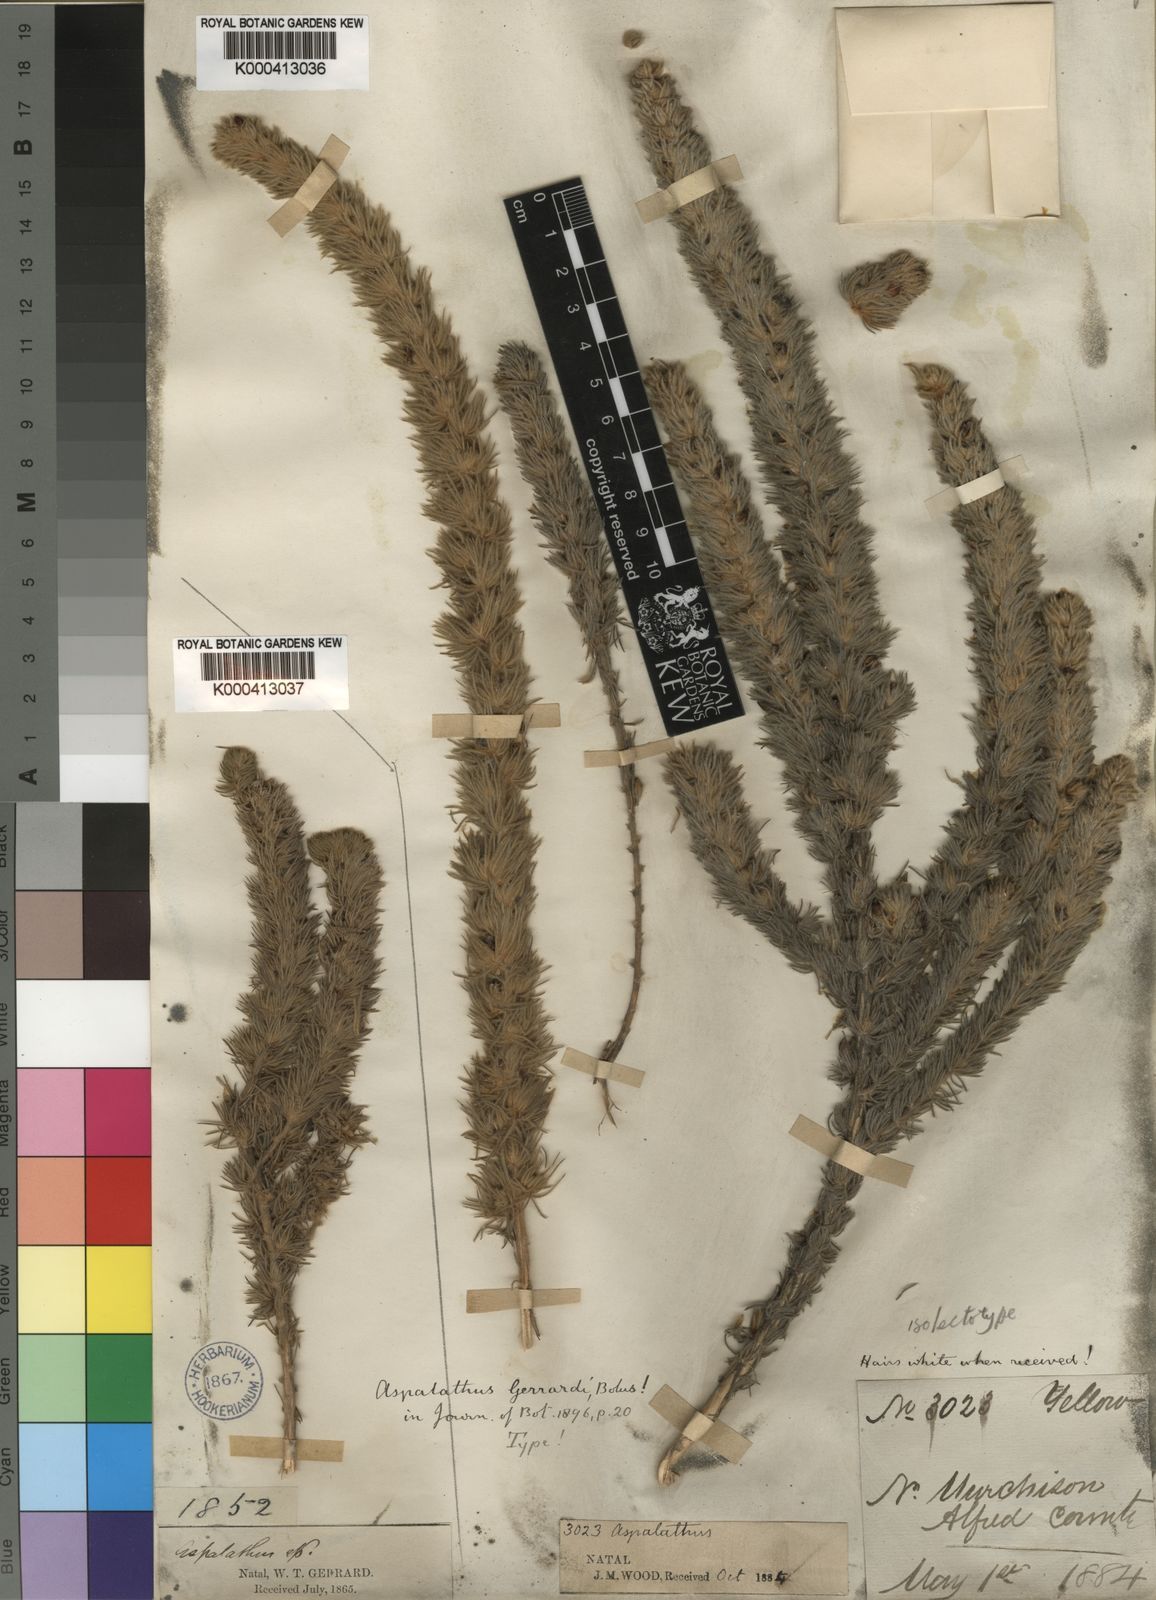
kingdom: Plantae
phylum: Tracheophyta
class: Magnoliopsida
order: Fabales
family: Fabaceae
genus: Aspalathus
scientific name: Aspalathus gerrardii
